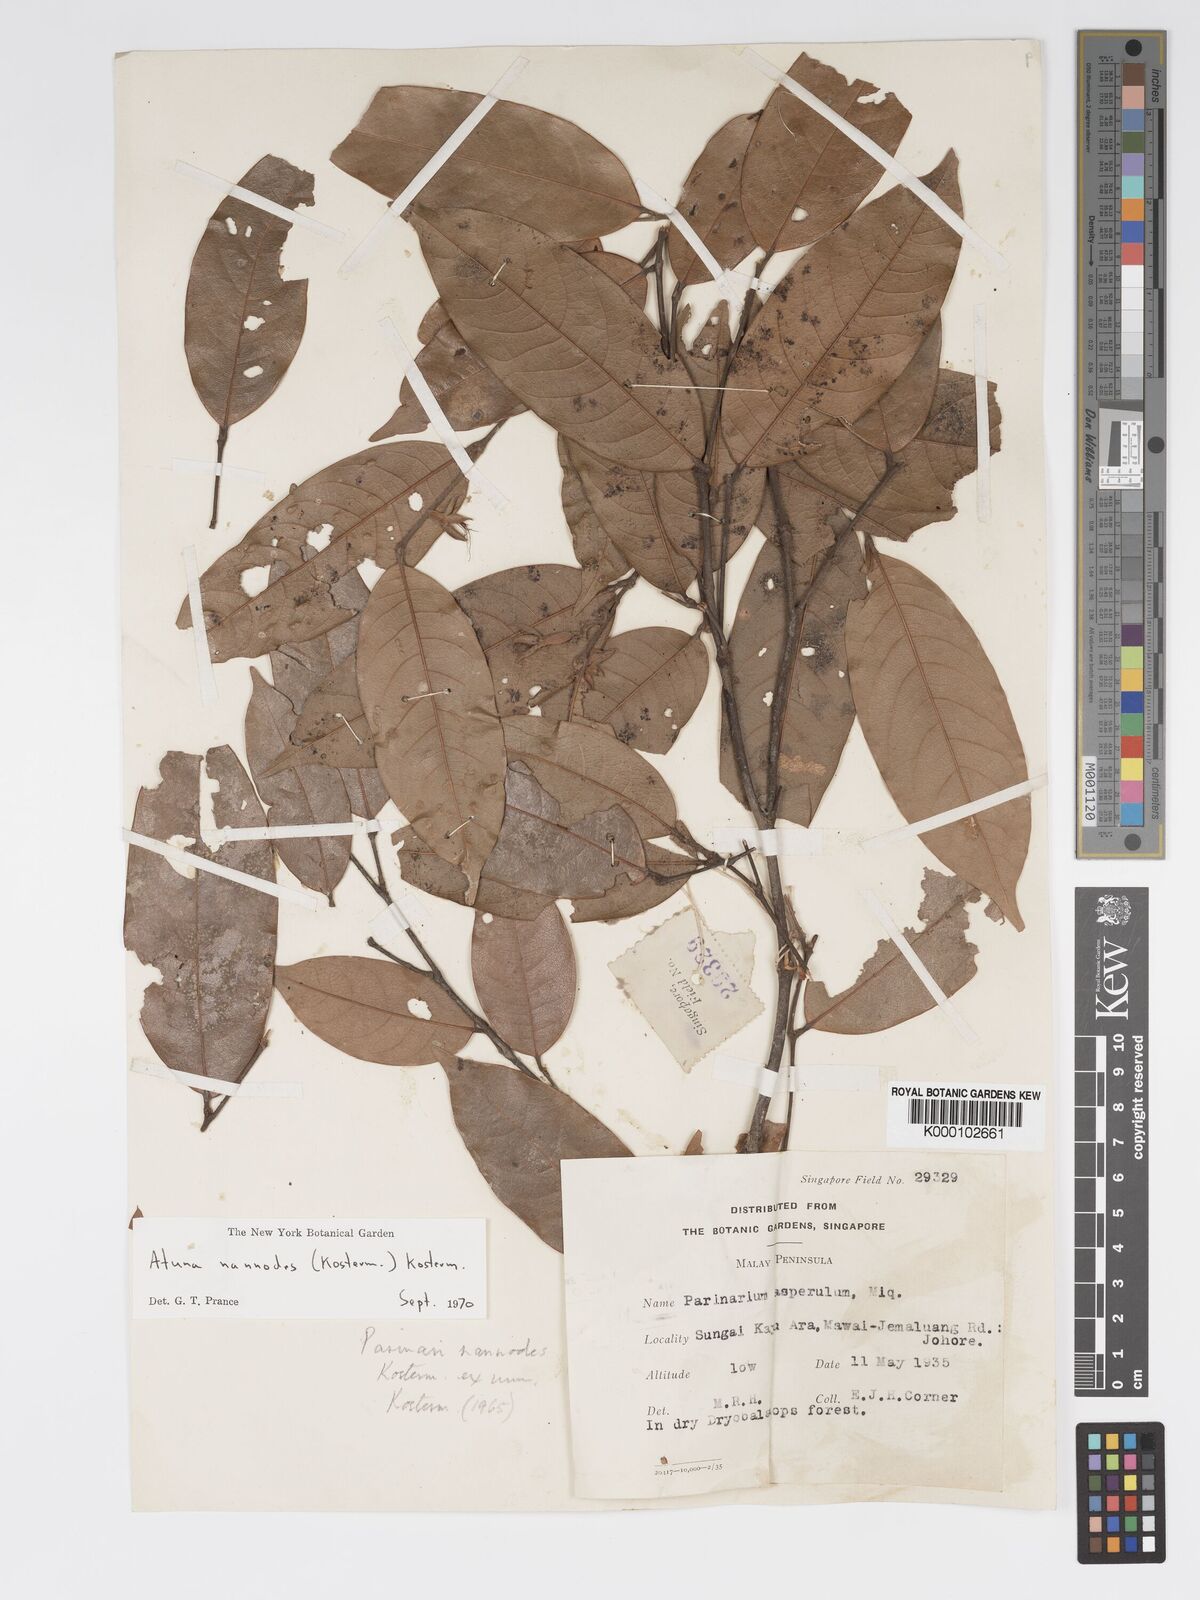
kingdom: Plantae
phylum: Tracheophyta
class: Magnoliopsida
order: Malpighiales
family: Chrysobalanaceae
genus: Atuna
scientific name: Atuna nannodes
